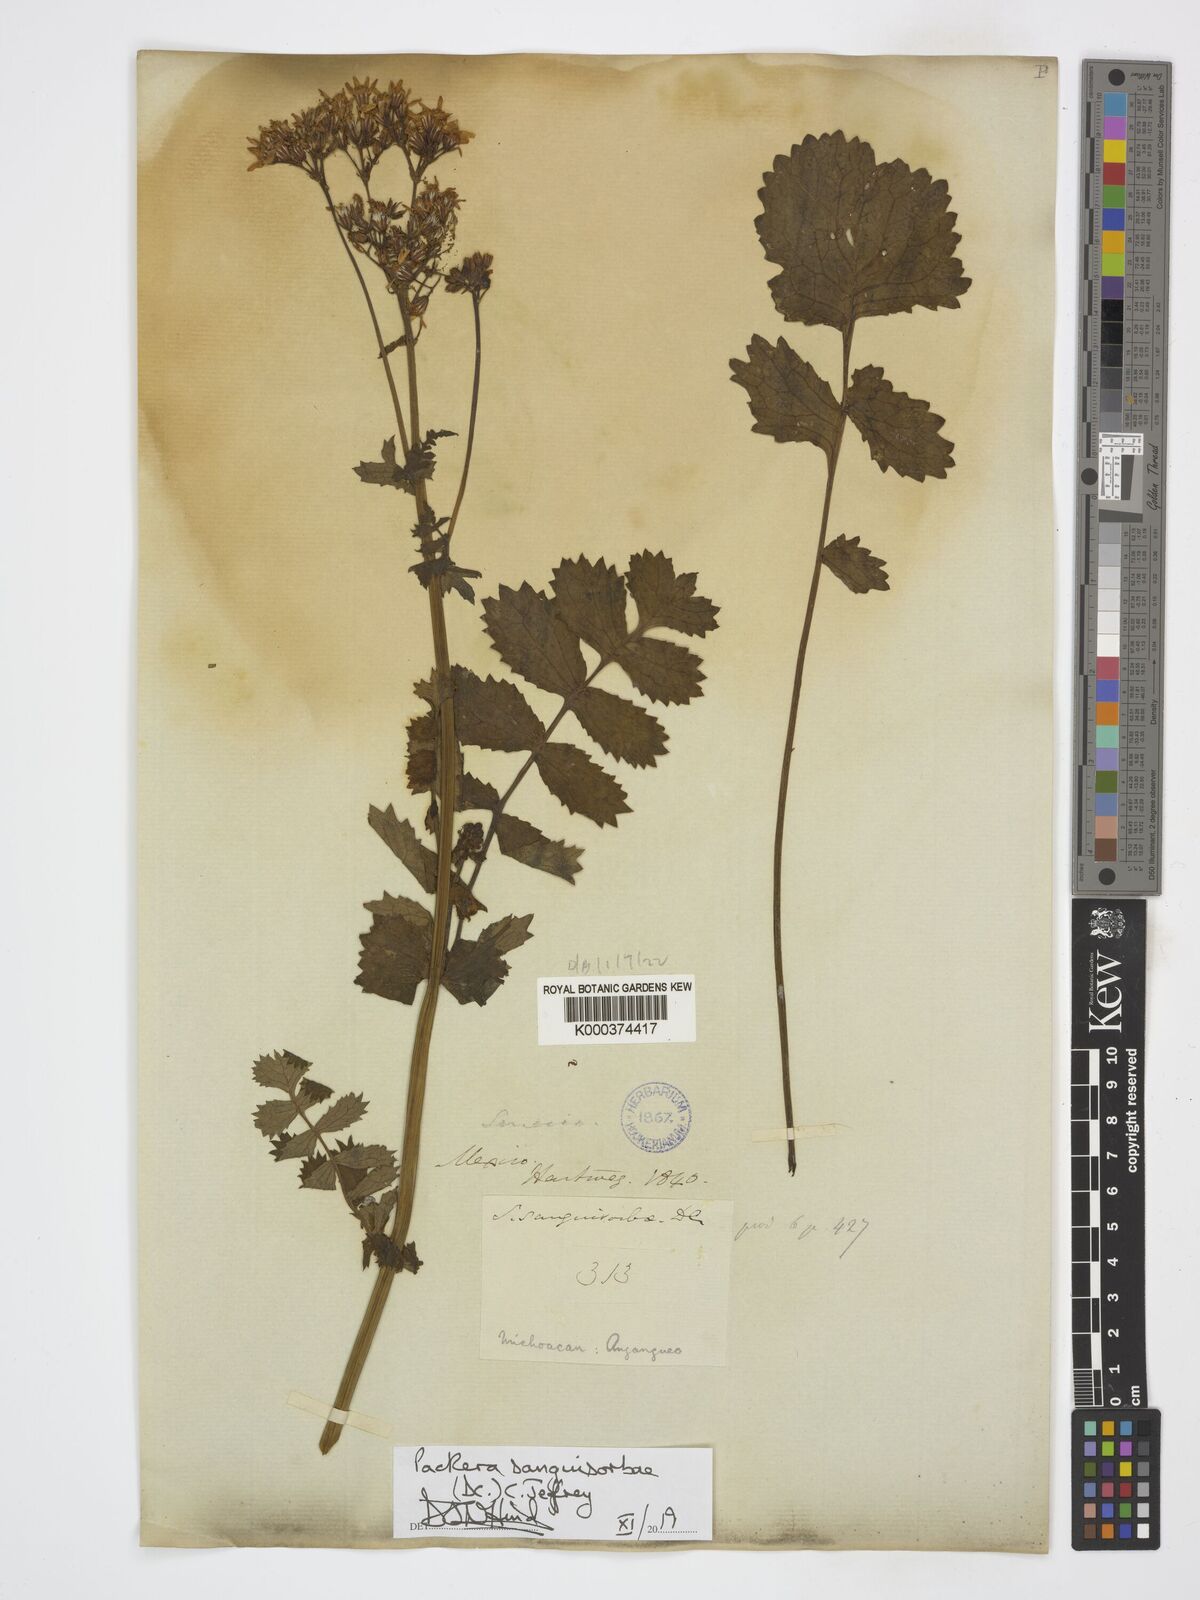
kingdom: Plantae
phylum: Tracheophyta
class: Magnoliopsida
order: Asterales
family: Asteraceae
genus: Packera
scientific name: Packera sanguisorbae
